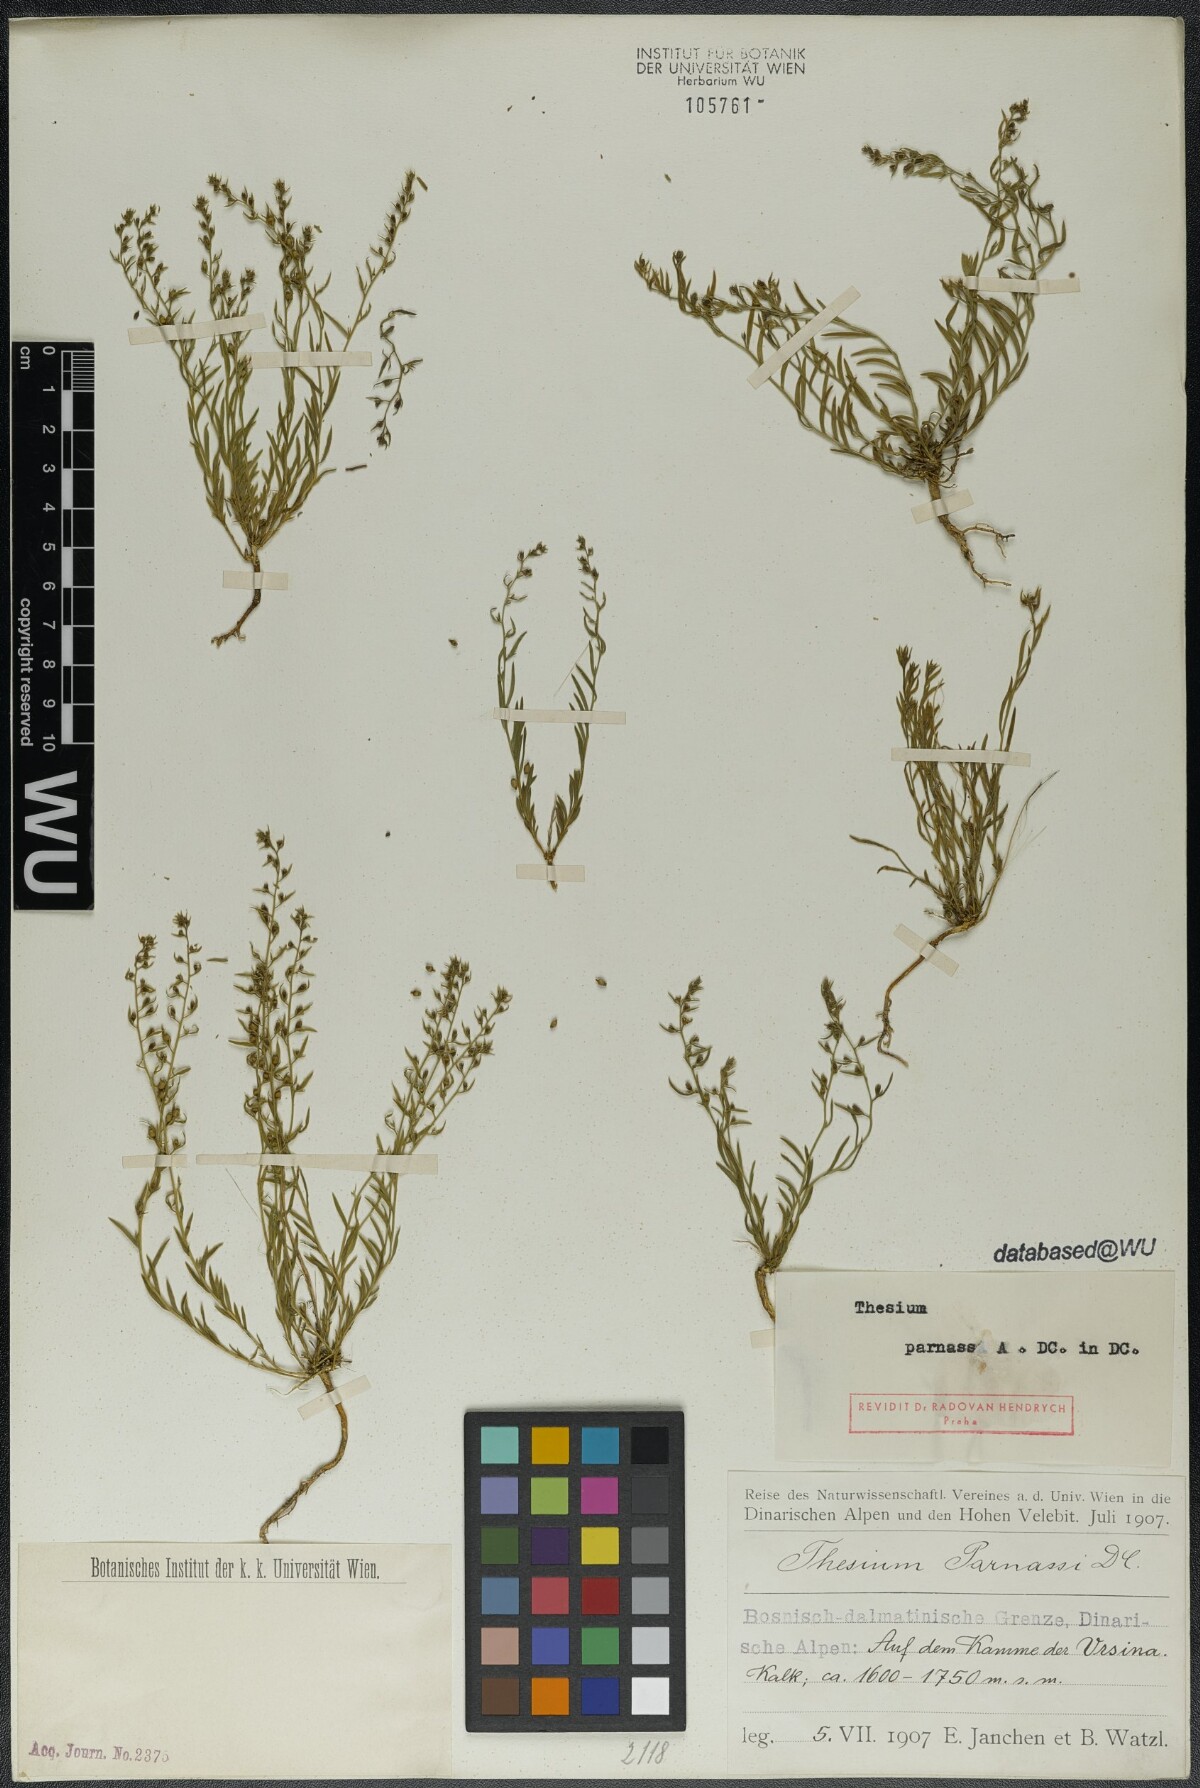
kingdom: Plantae
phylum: Tracheophyta
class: Magnoliopsida
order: Santalales
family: Thesiaceae
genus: Thesium
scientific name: Thesium parnassi
